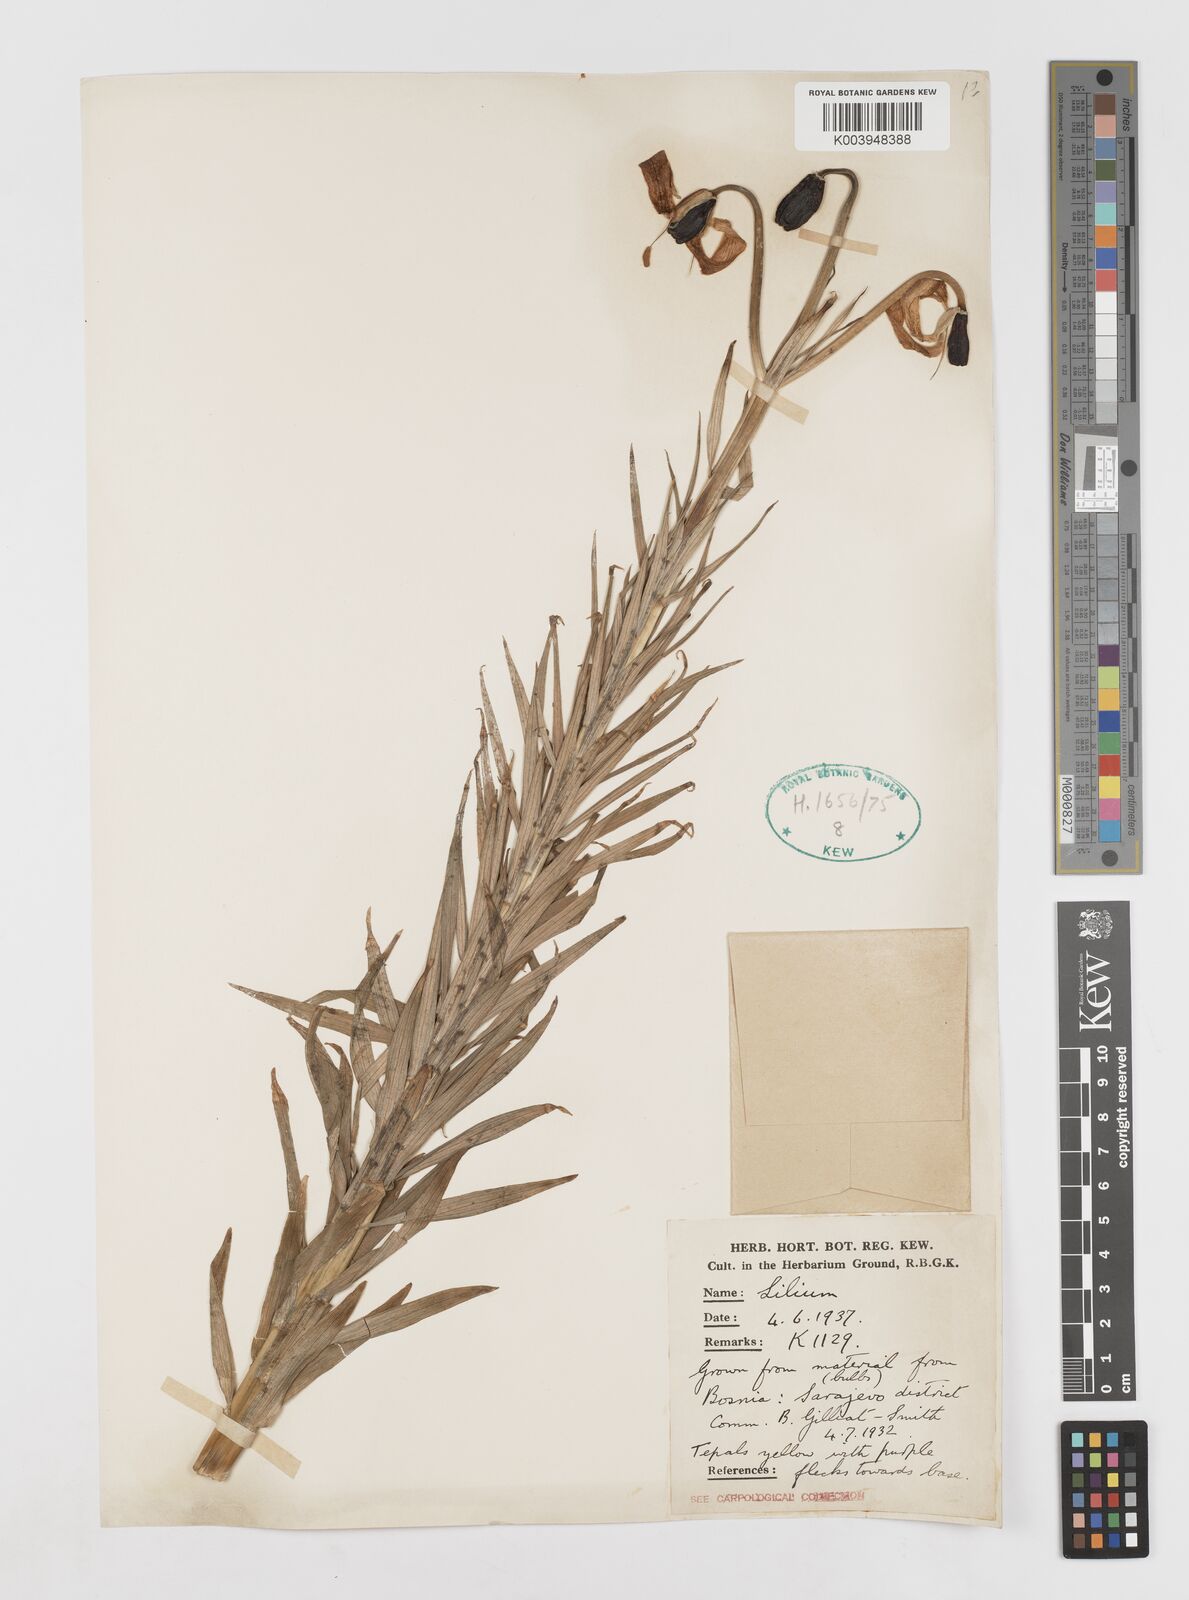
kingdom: Plantae
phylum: Tracheophyta
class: Liliopsida
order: Liliales
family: Liliaceae
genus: Lilium
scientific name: Lilium bosniacum
